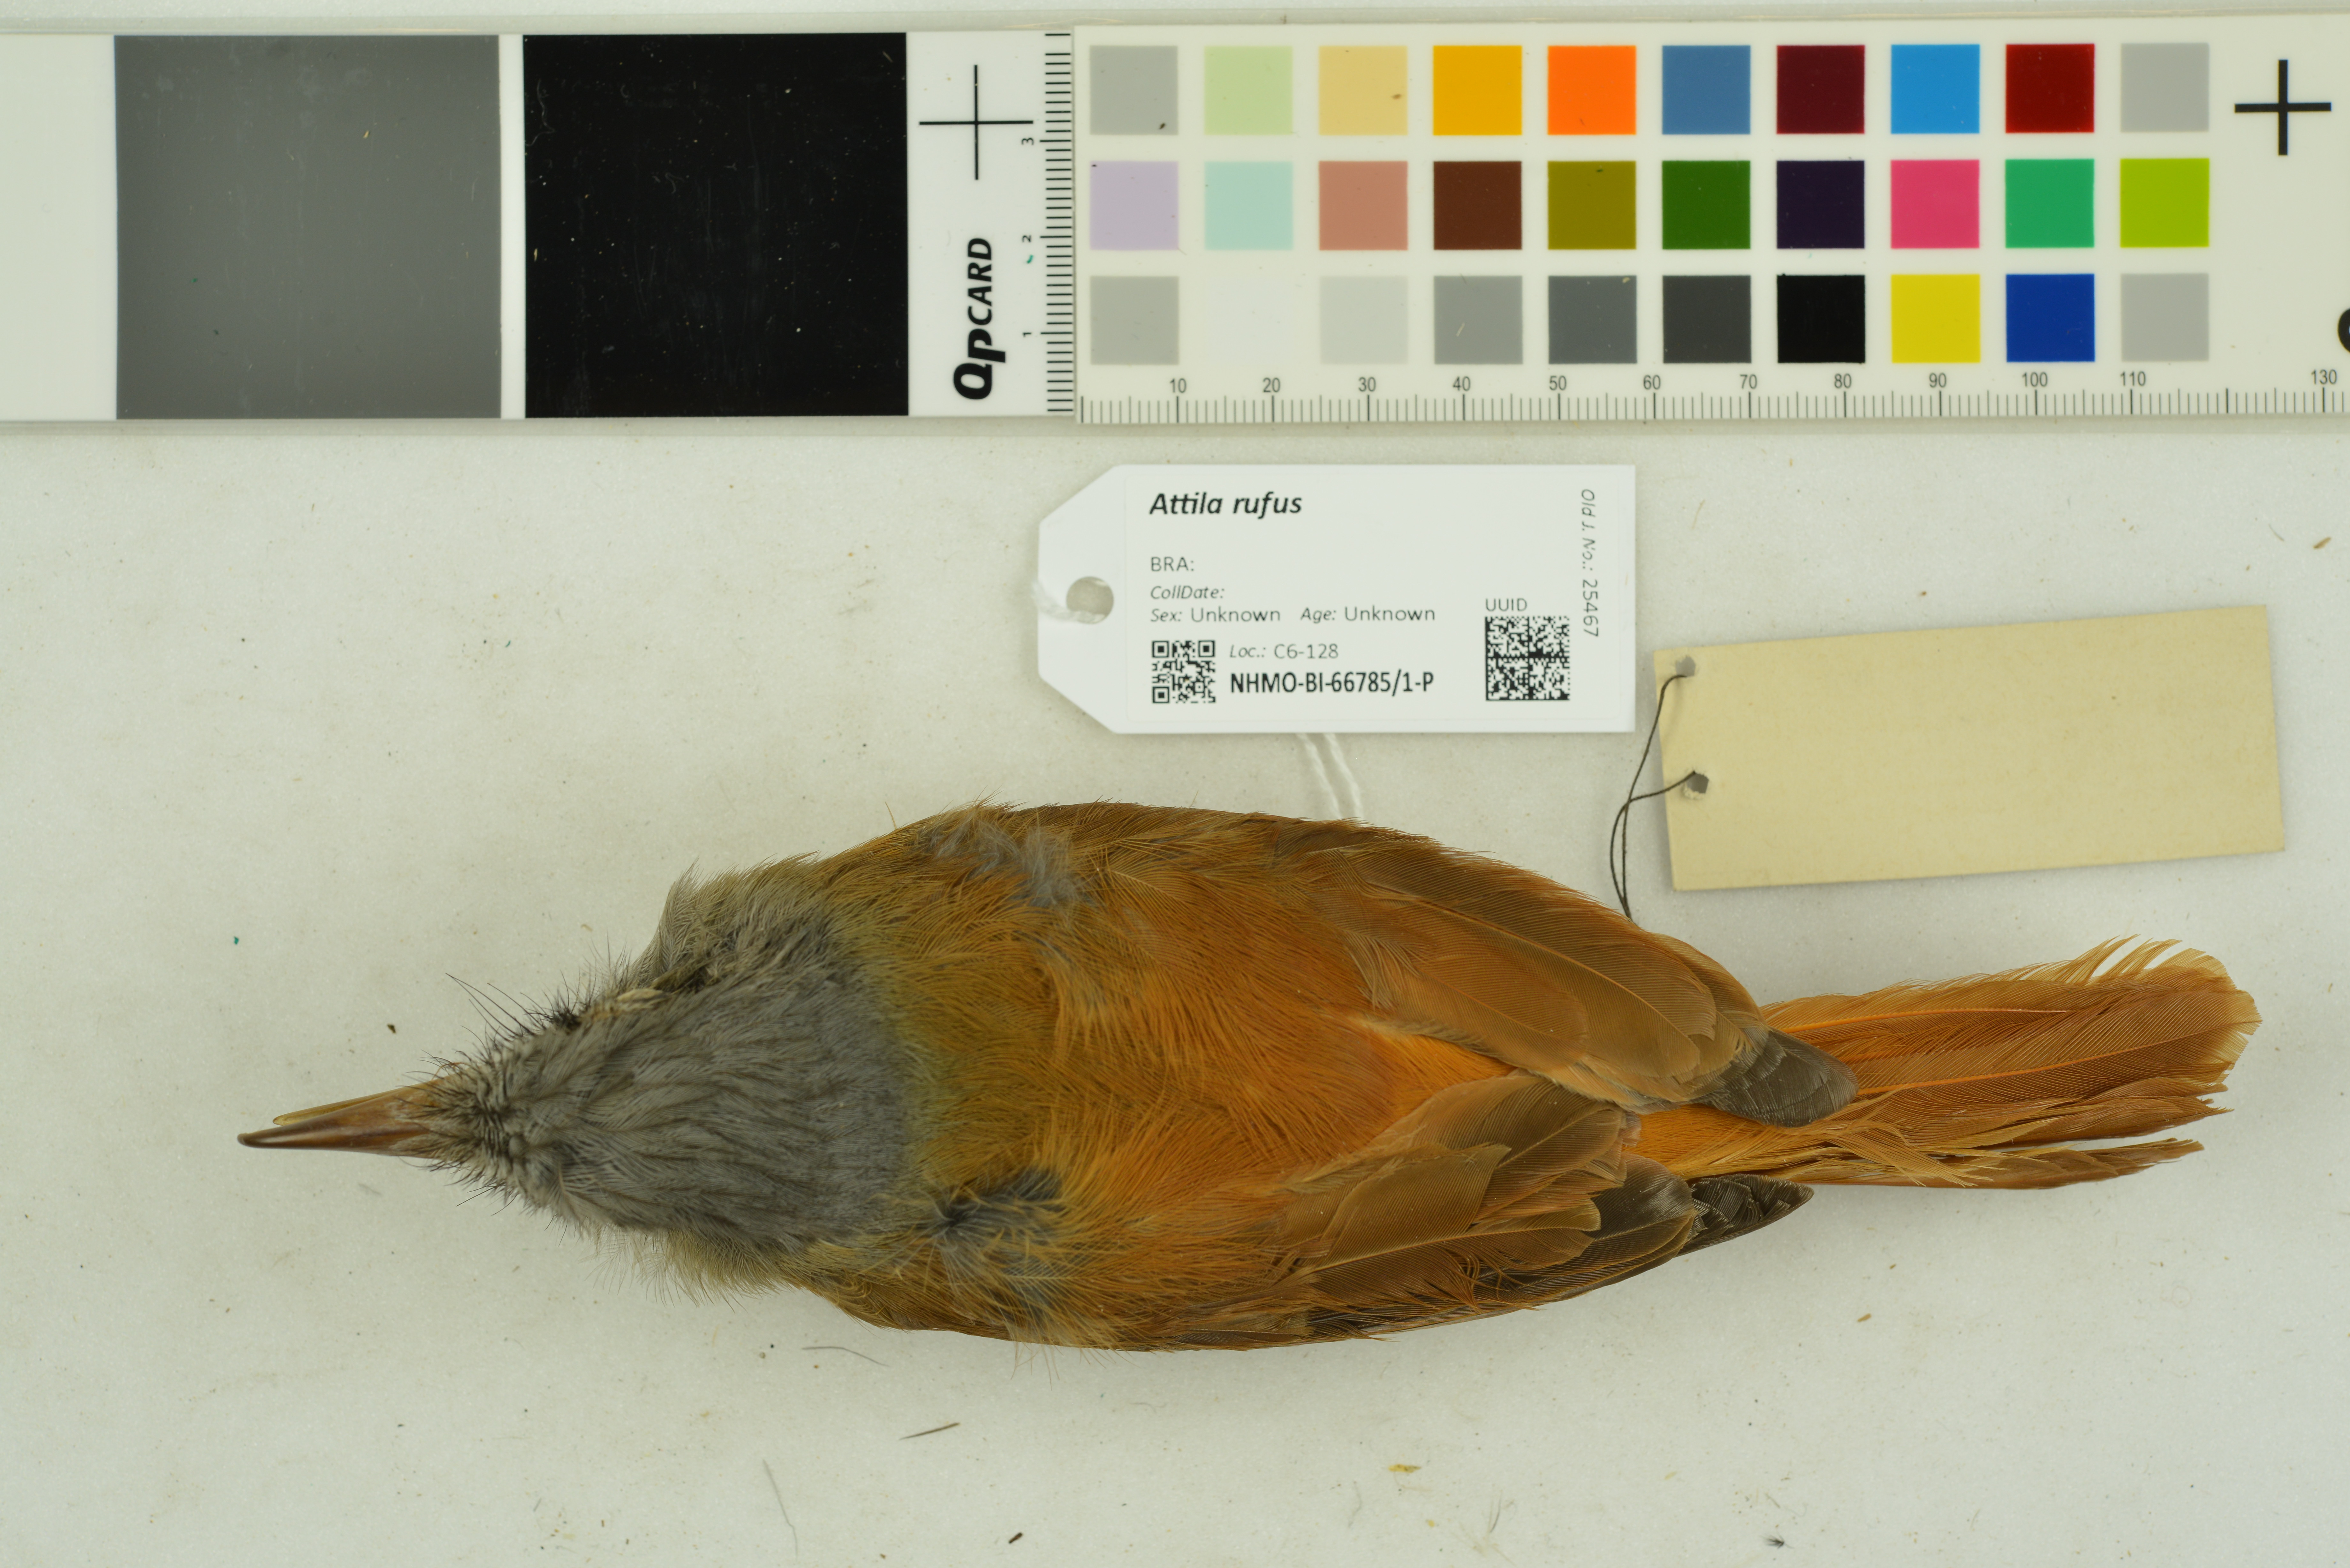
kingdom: Animalia
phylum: Chordata
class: Aves
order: Passeriformes
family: Tyrannidae
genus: Attila
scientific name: Attila rufus
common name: Grey-hooded attila
